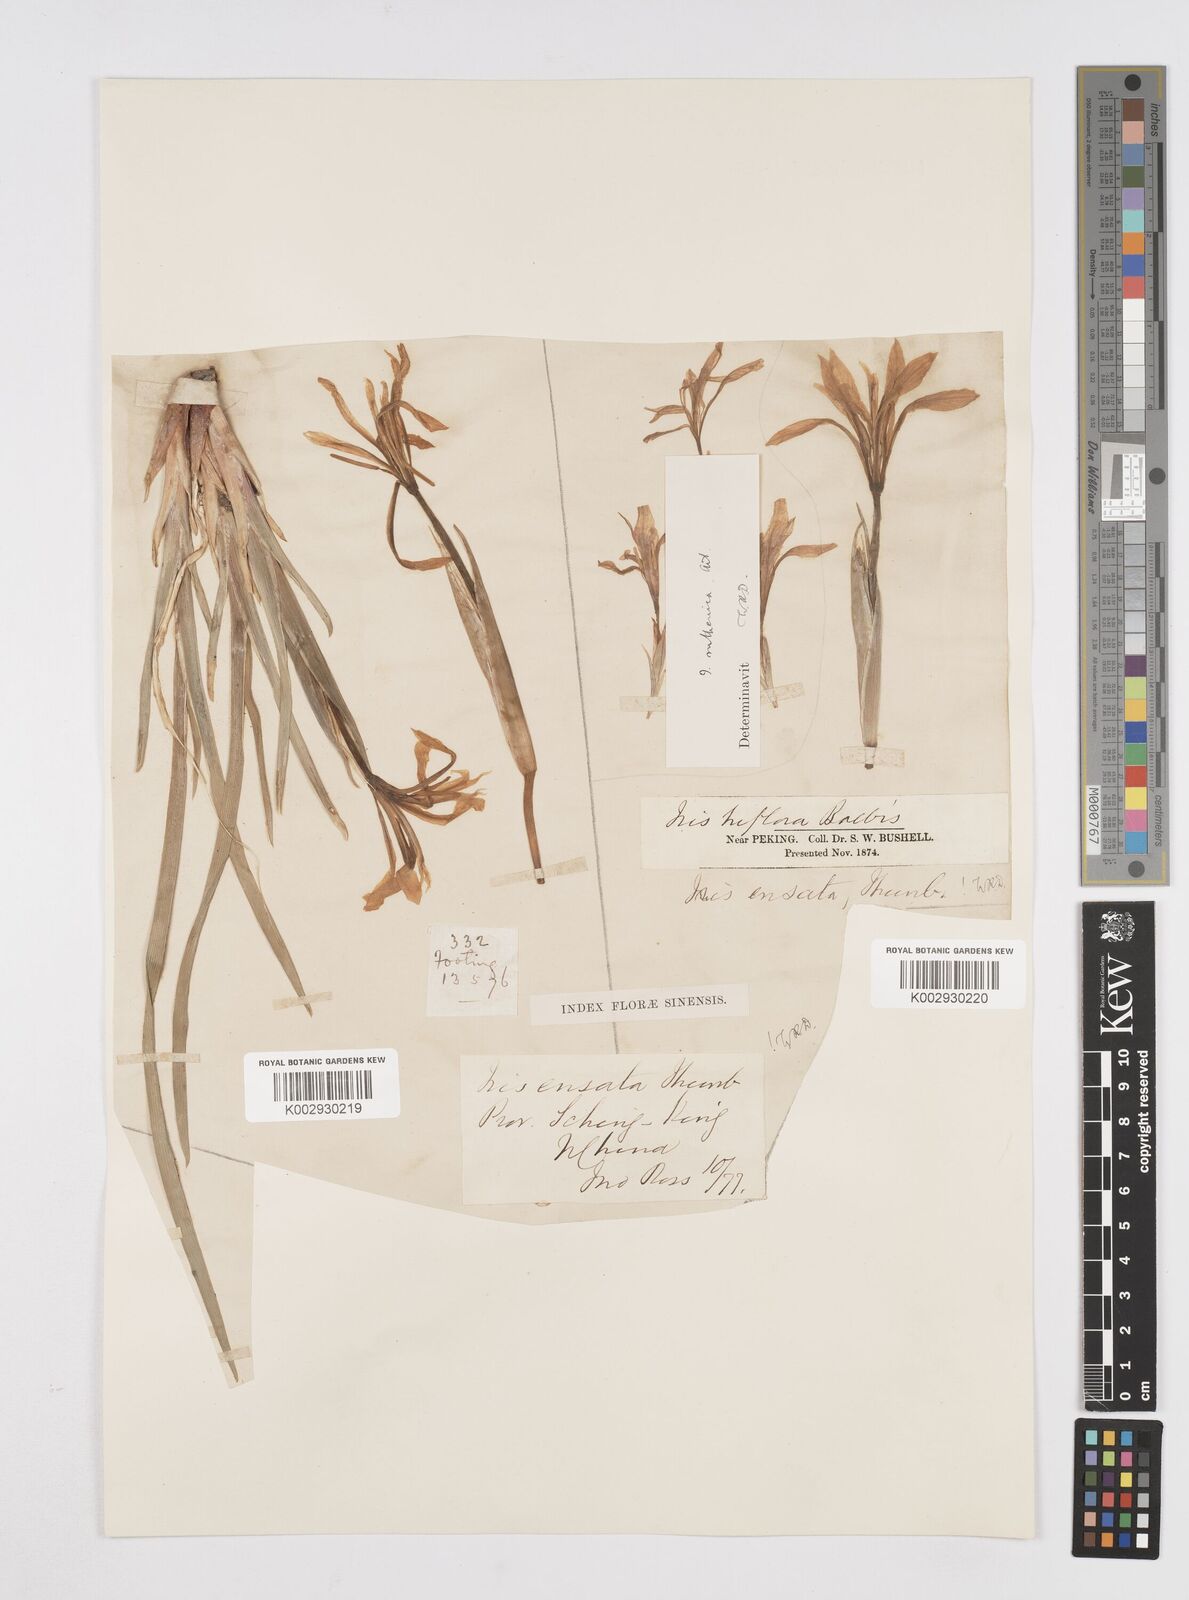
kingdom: Plantae
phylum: Tracheophyta
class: Liliopsida
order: Asparagales
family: Iridaceae
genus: Iris
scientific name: Iris lactea
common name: White-flower chinese iris
